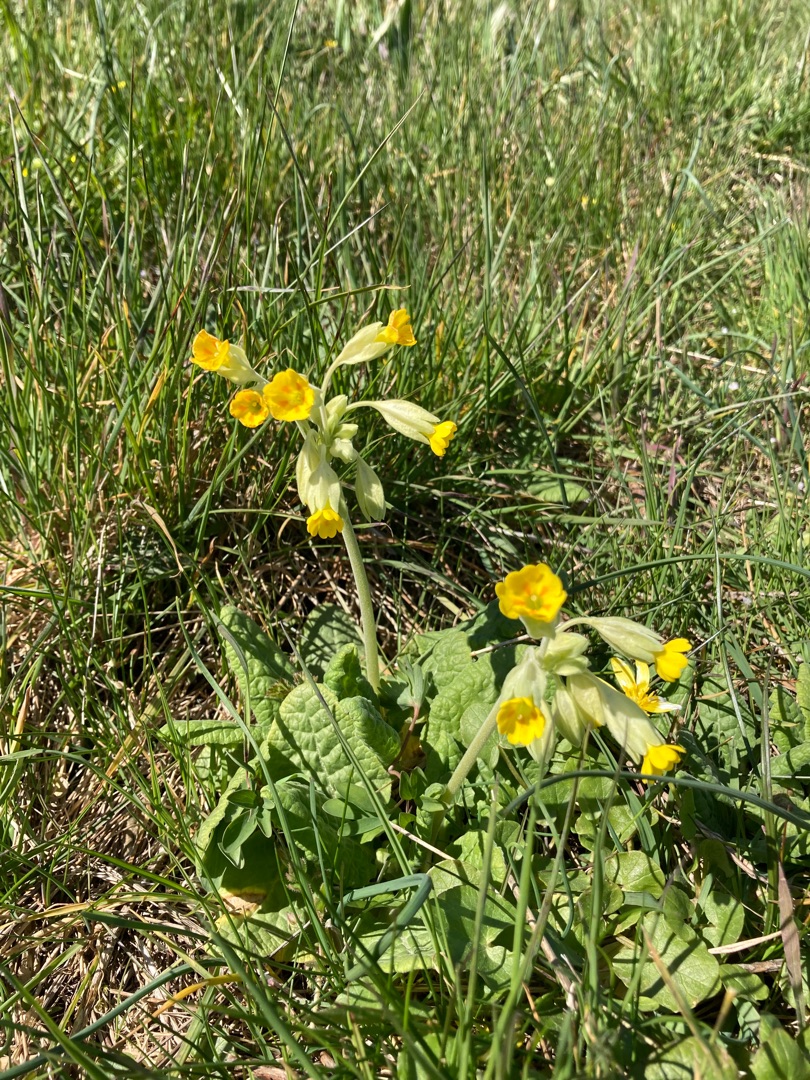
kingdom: Plantae
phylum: Tracheophyta
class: Magnoliopsida
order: Ericales
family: Primulaceae
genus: Primula
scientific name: Primula veris
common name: Hulkravet kodriver
